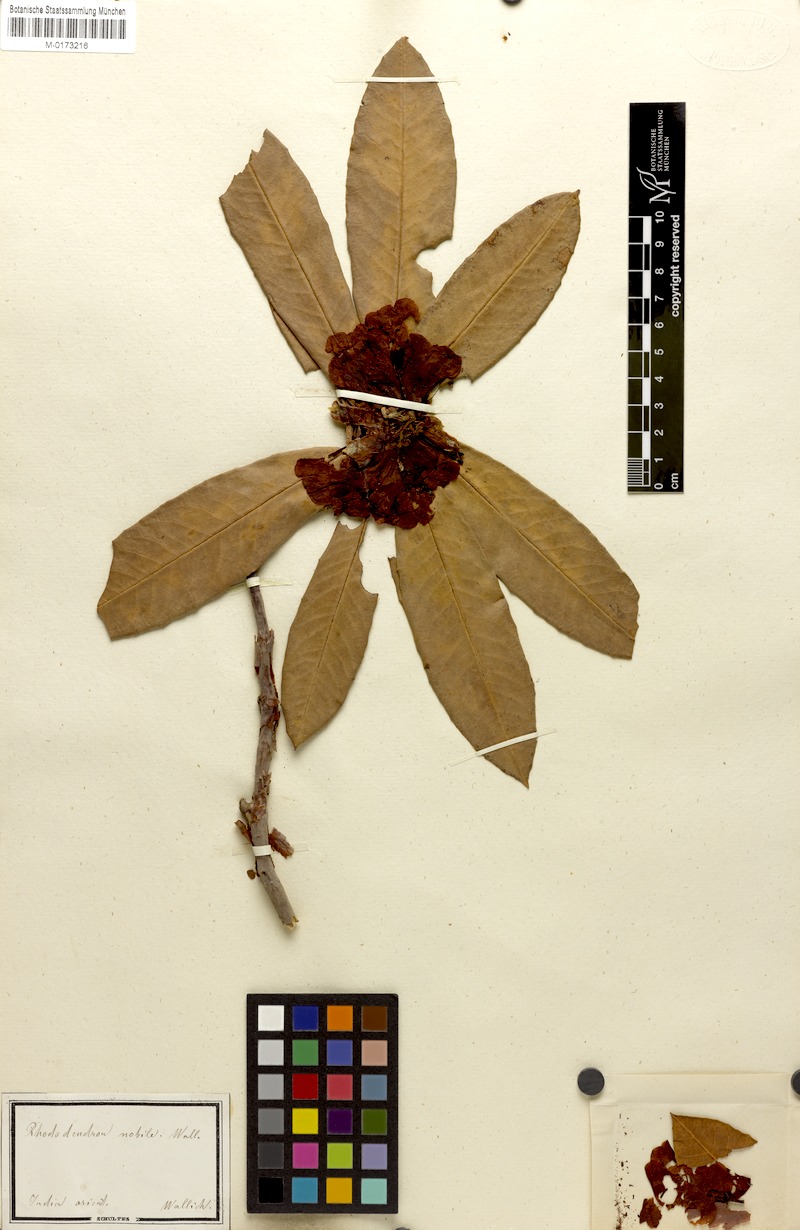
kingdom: Plantae
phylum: Tracheophyta
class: Magnoliopsida
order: Ericales
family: Ericaceae
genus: Rhododendron
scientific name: Rhododendron campanulatum
